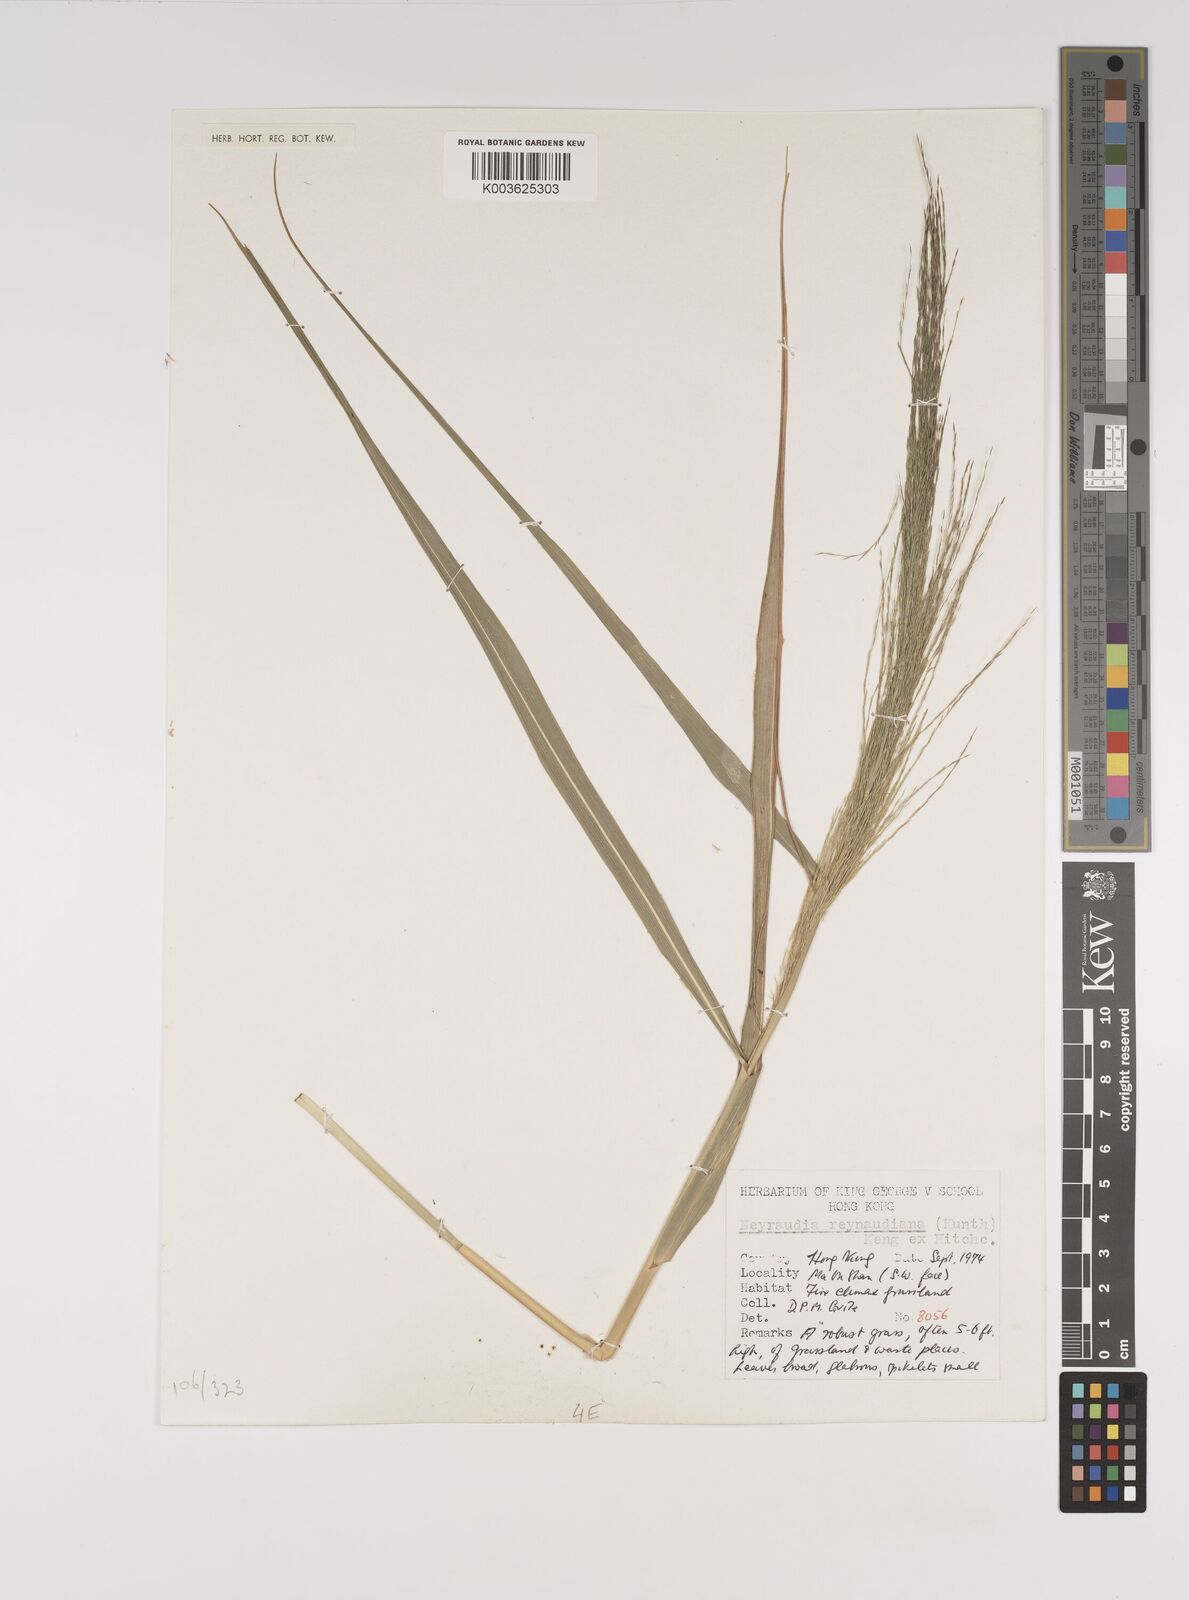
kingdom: Plantae
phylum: Tracheophyta
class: Liliopsida
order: Poales
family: Poaceae
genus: Neyraudia
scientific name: Neyraudia reynaudiana
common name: Silkreed
